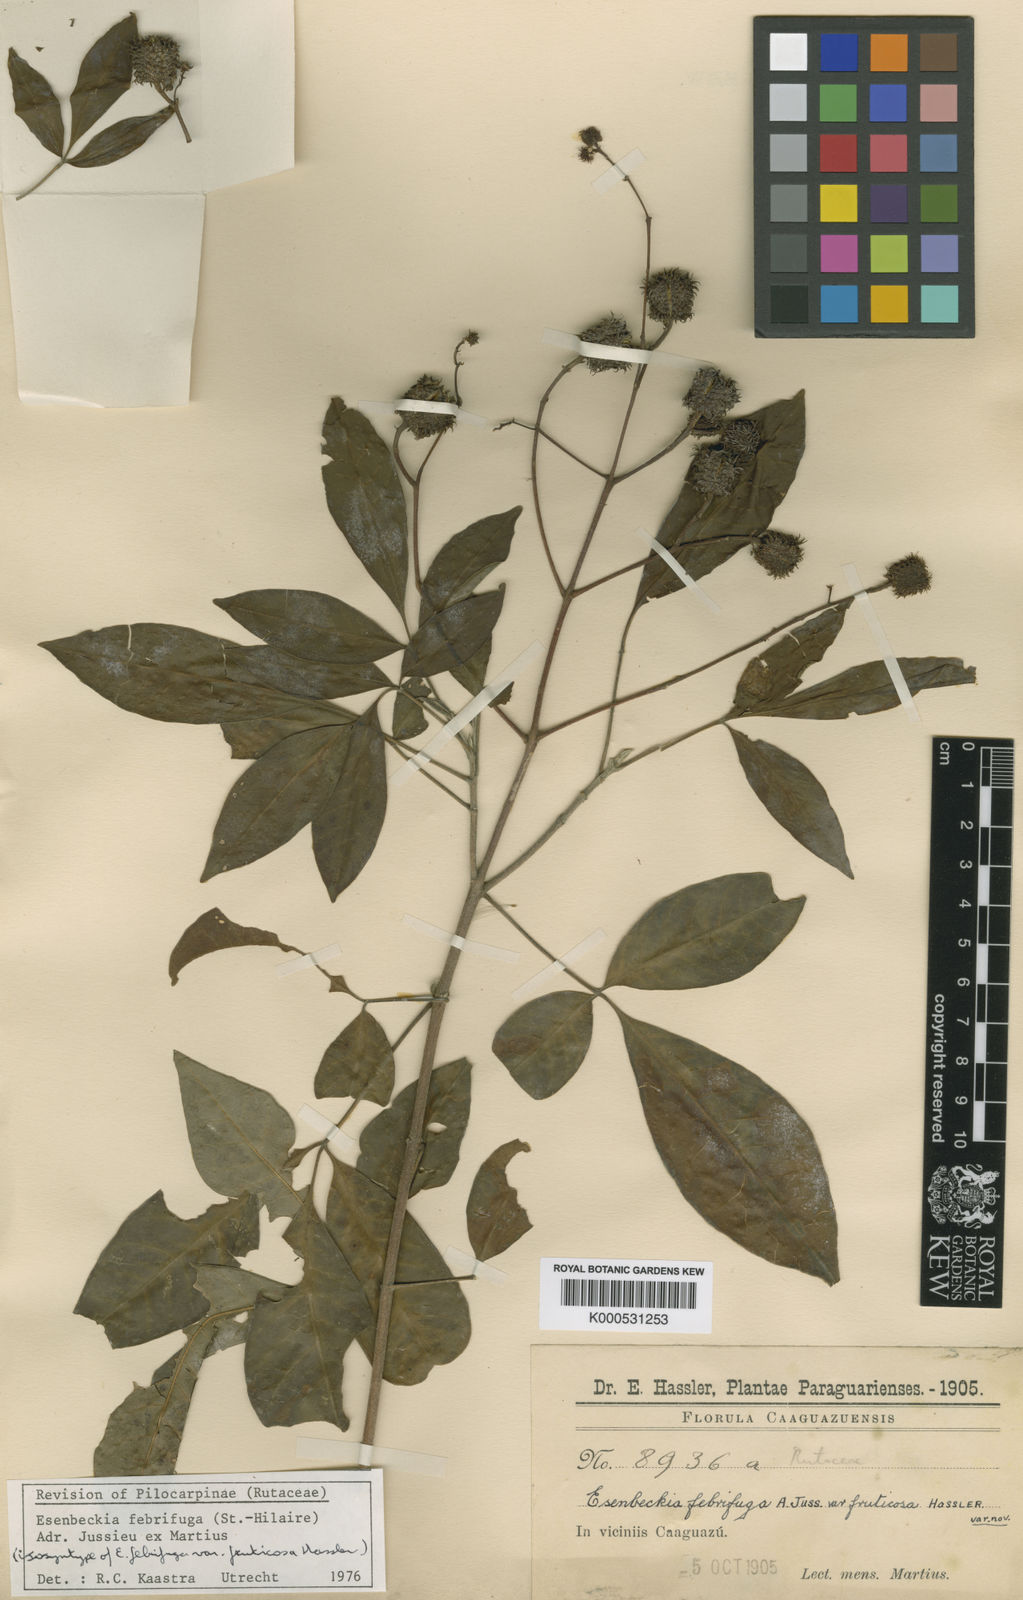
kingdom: Plantae
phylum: Tracheophyta
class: Magnoliopsida
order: Sapindales
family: Rutaceae
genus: Esenbeckia
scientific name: Esenbeckia febrifuga
